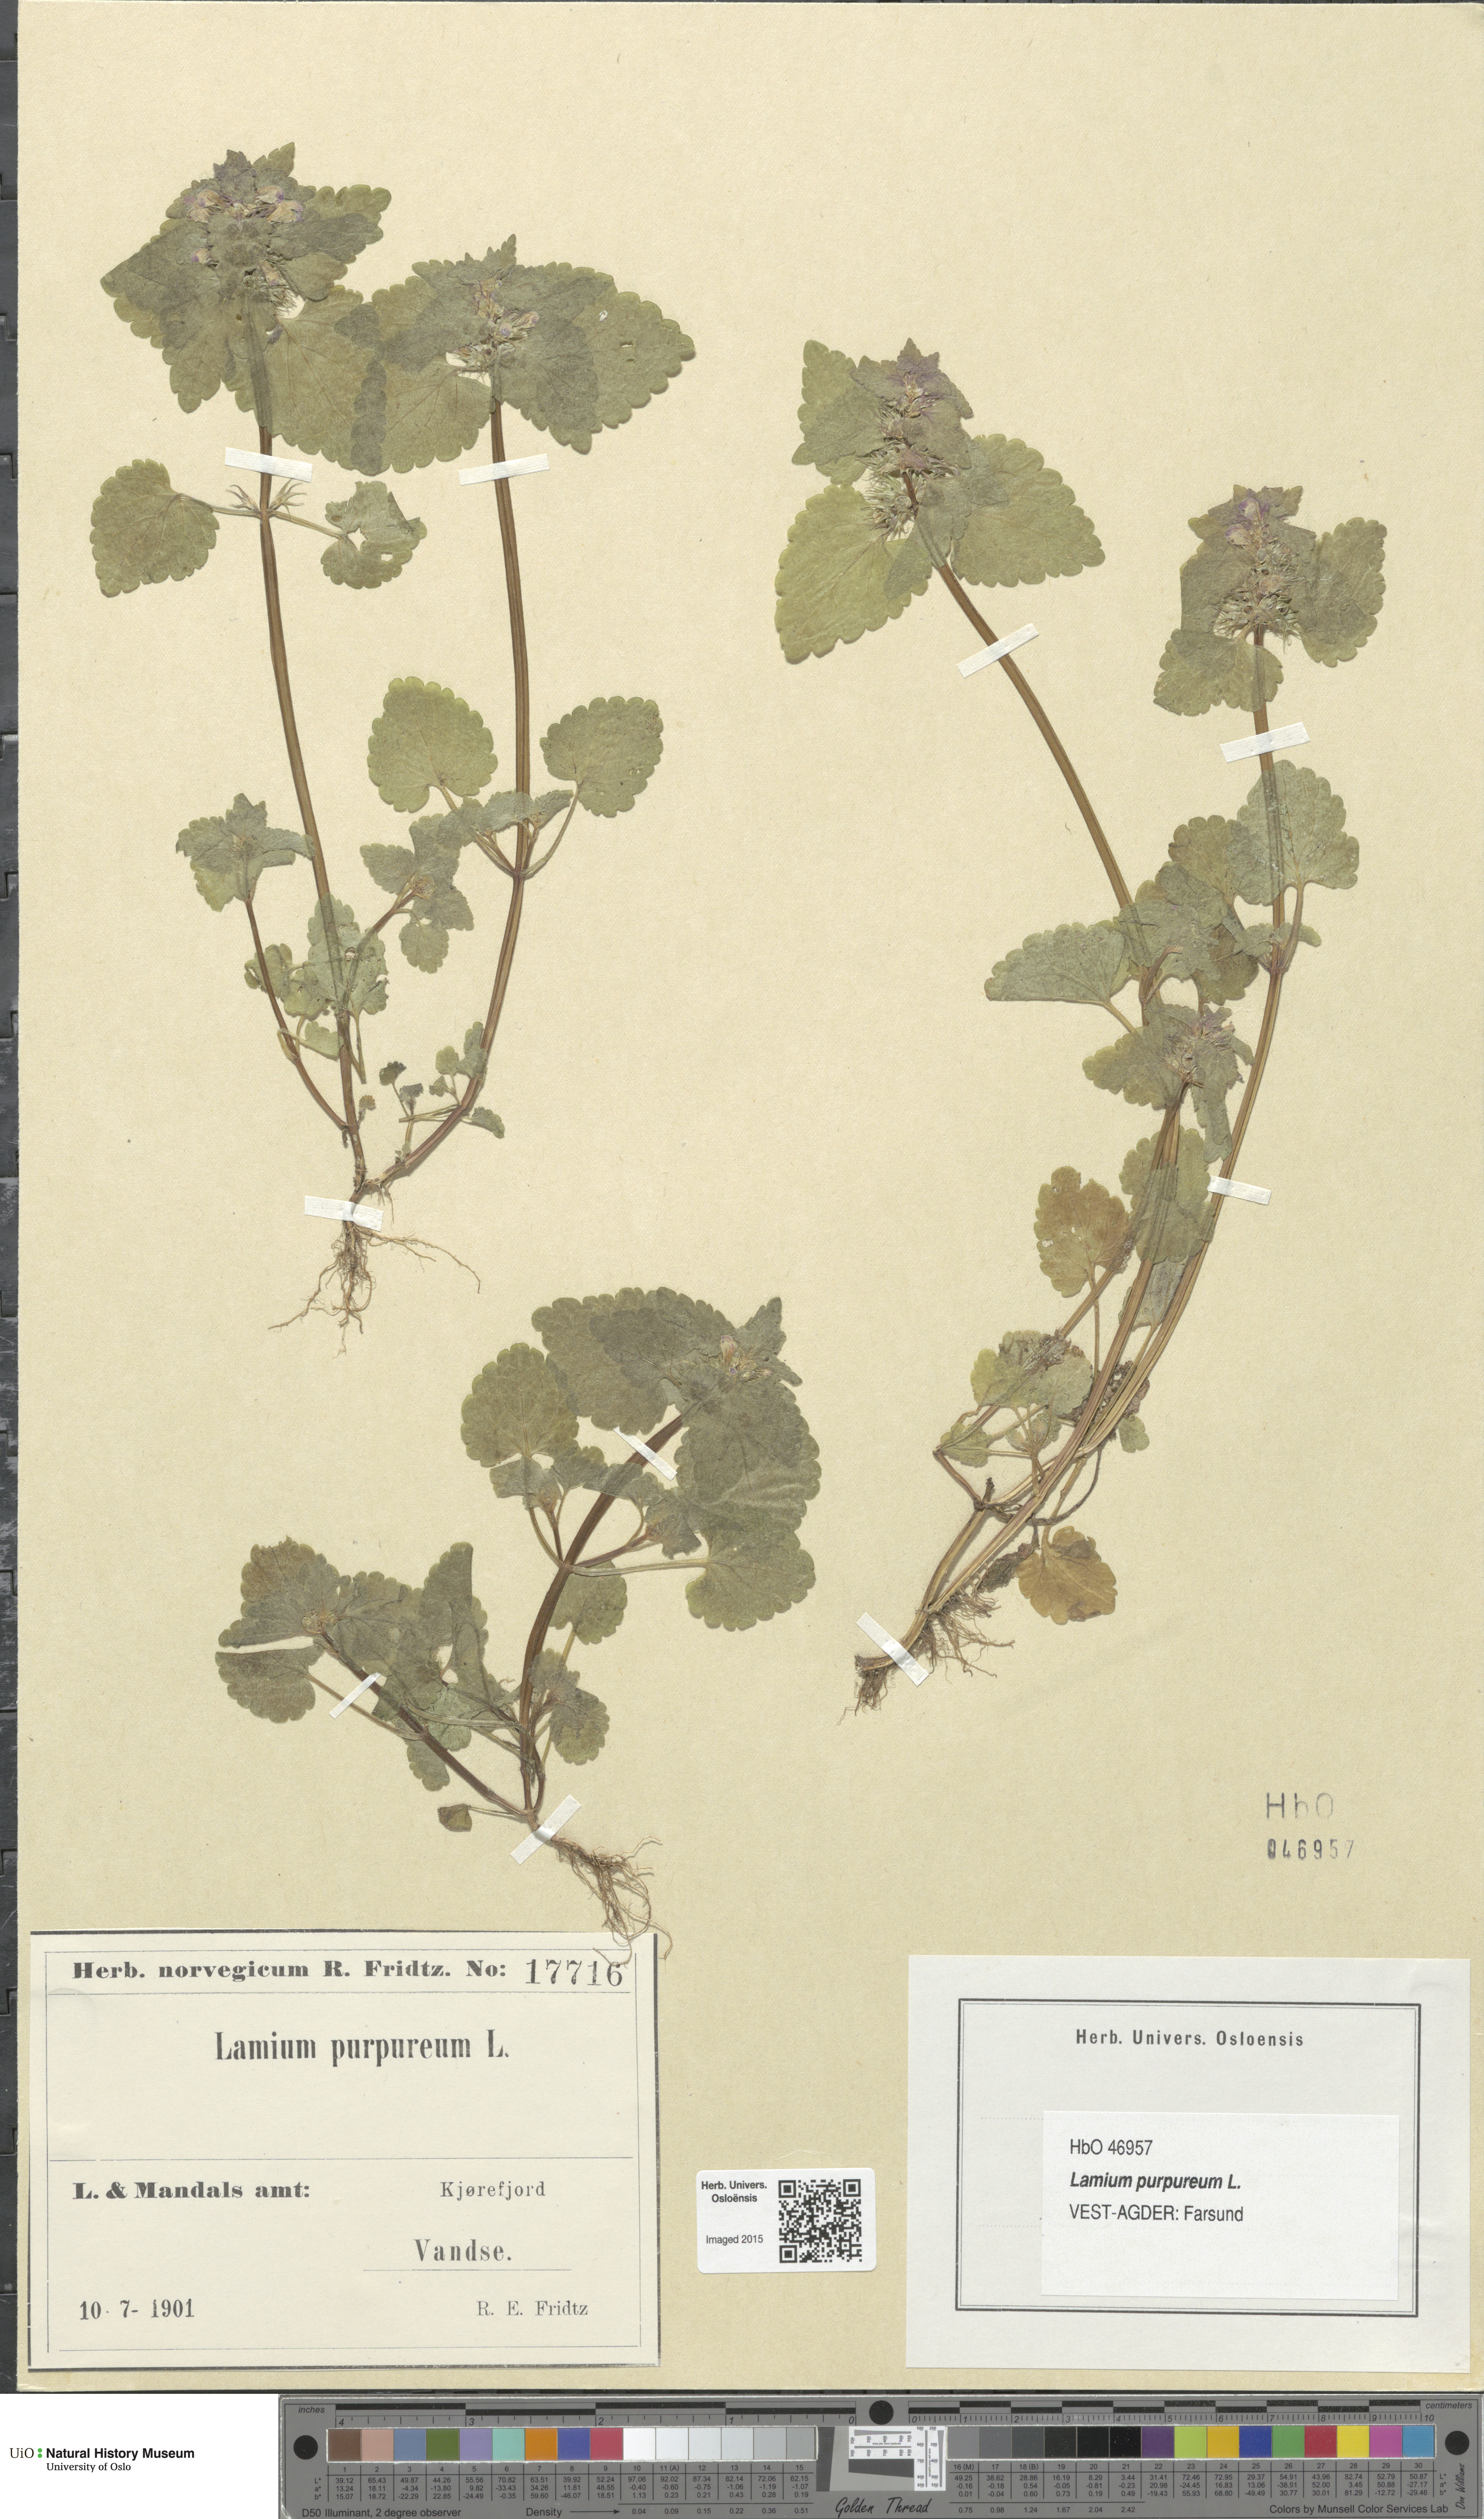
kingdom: Plantae
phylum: Tracheophyta
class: Magnoliopsida
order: Lamiales
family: Lamiaceae
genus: Lamium
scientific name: Lamium purpureum
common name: Red dead-nettle
